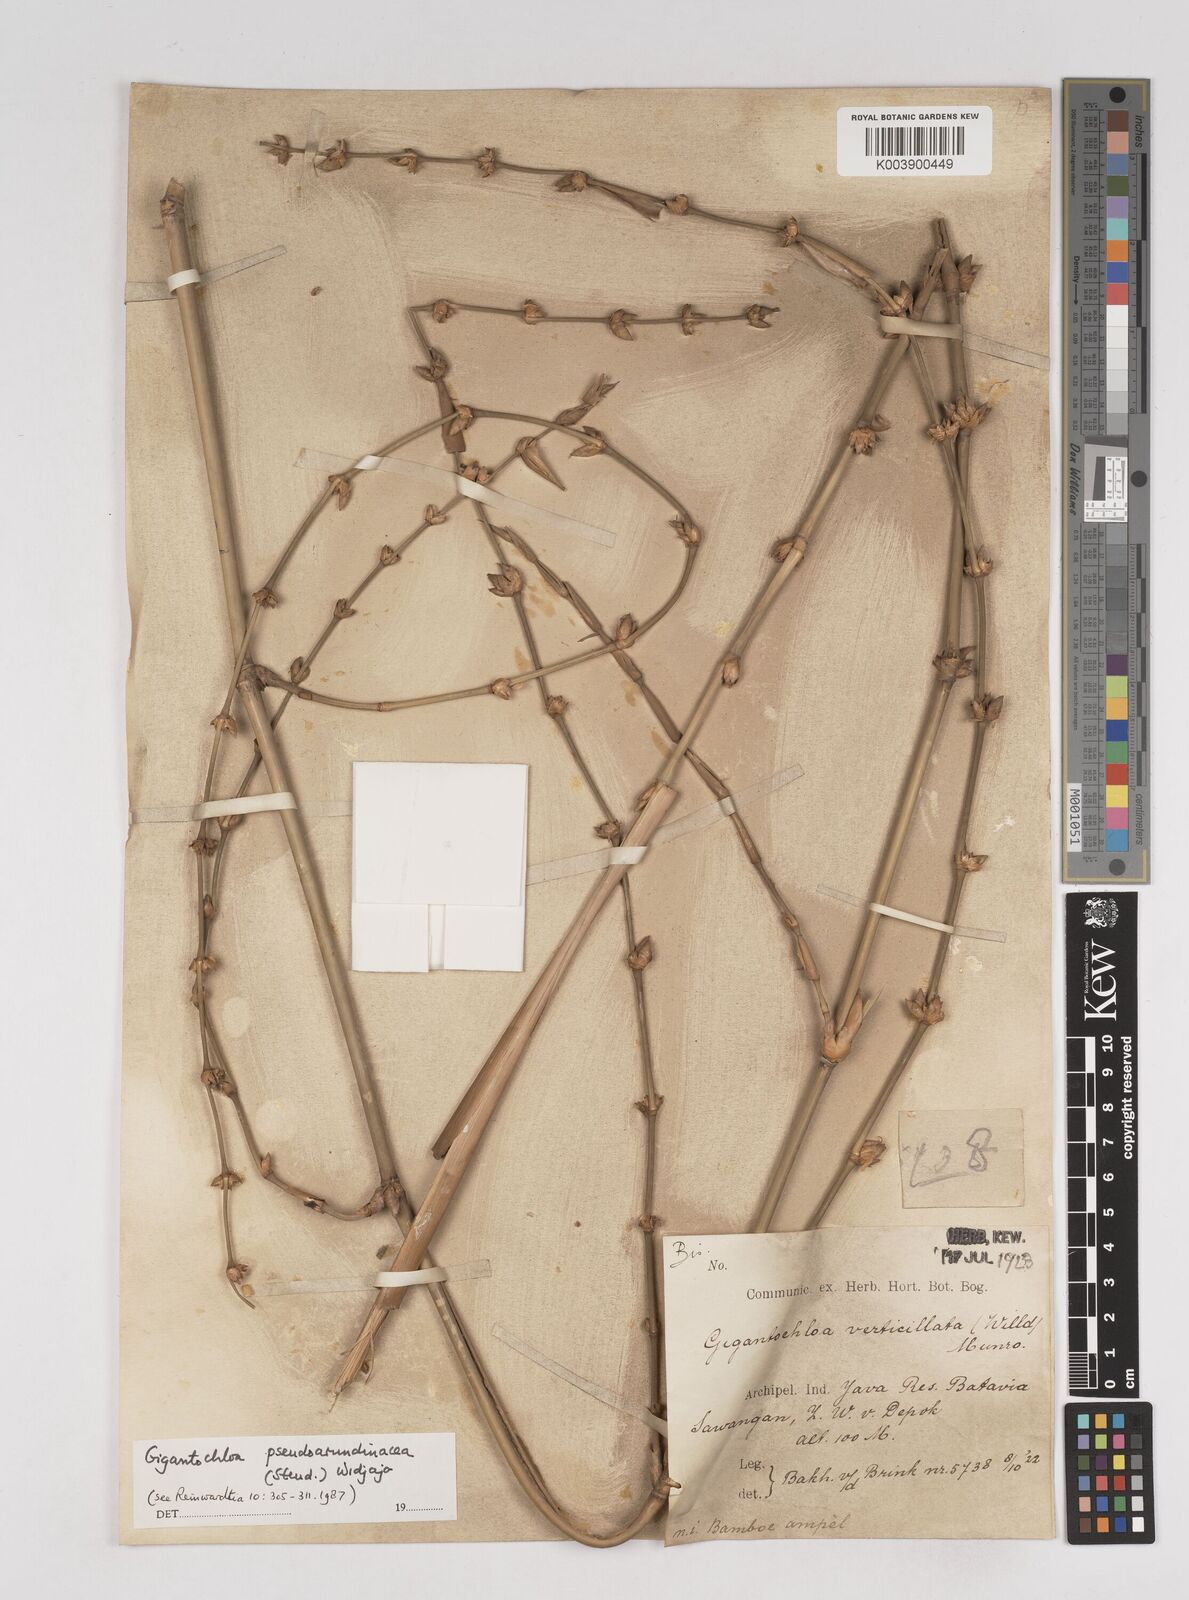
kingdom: Plantae
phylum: Tracheophyta
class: Liliopsida
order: Poales
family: Poaceae
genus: Gigantochloa
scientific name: Gigantochloa verticillata
